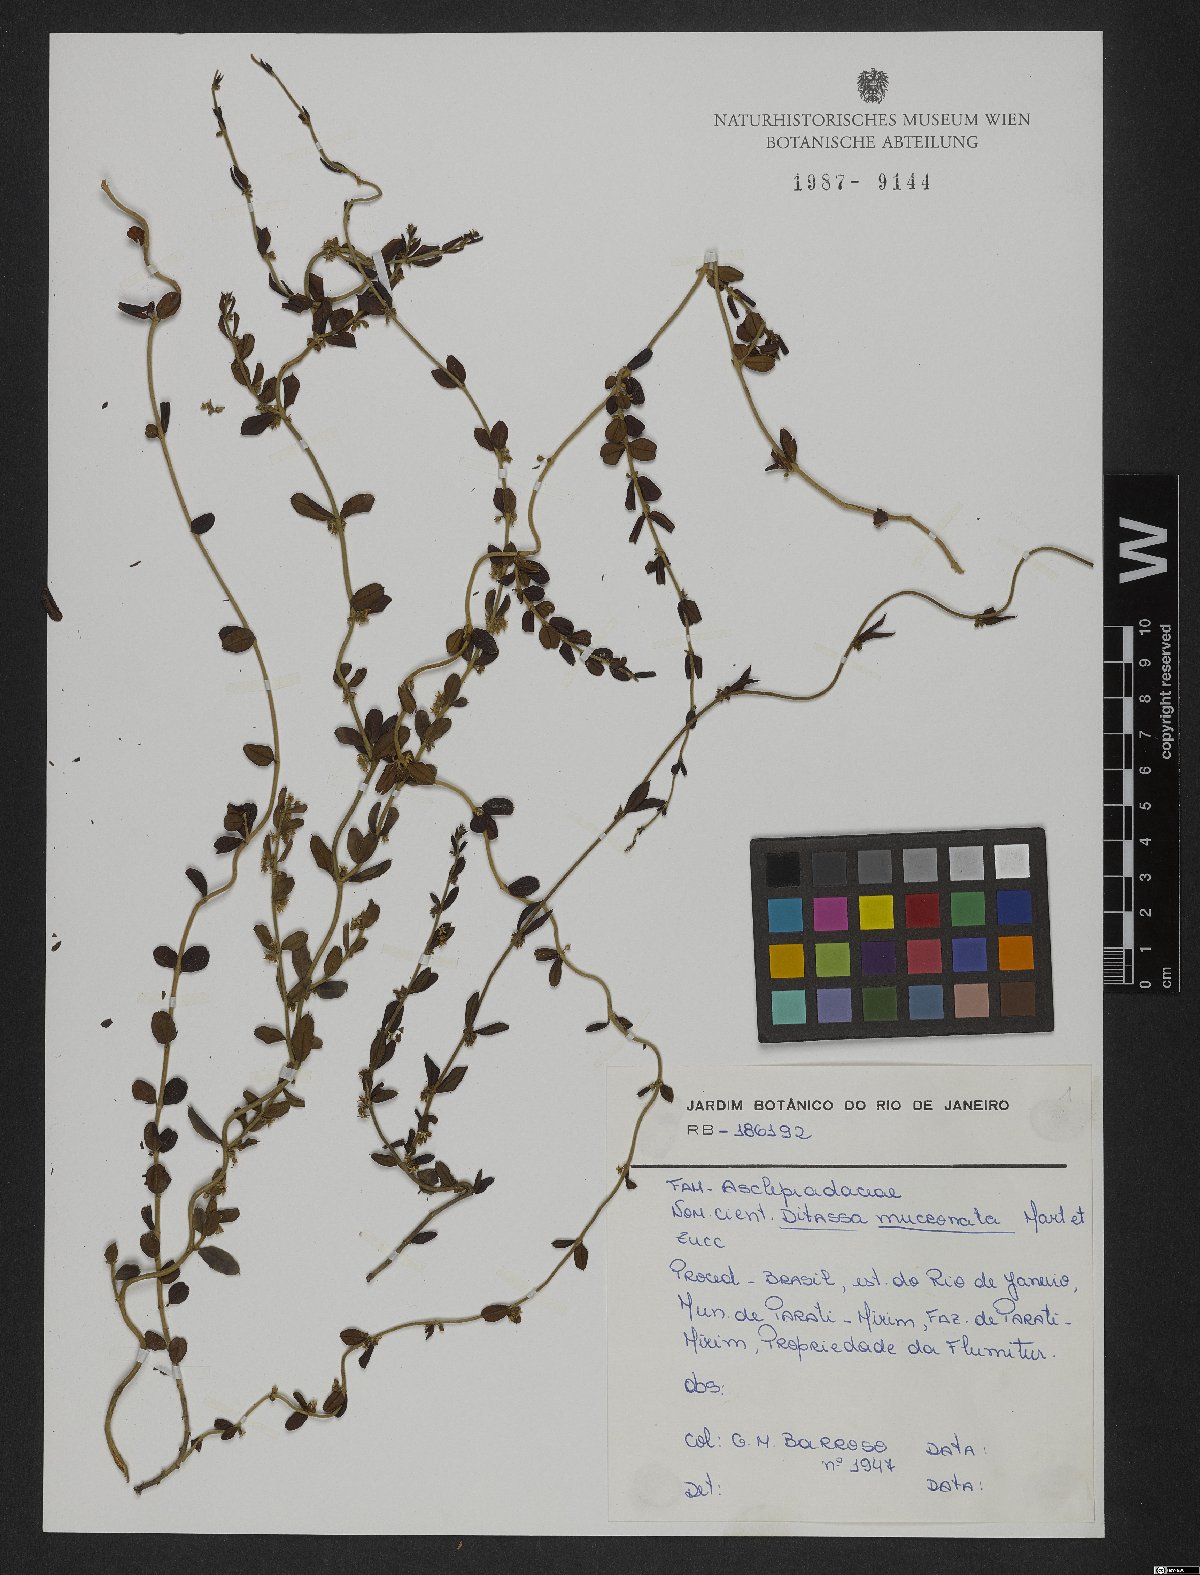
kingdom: Plantae
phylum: Tracheophyta
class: Magnoliopsida
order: Gentianales
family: Apocynaceae
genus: Ditassa
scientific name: Ditassa mucronata
